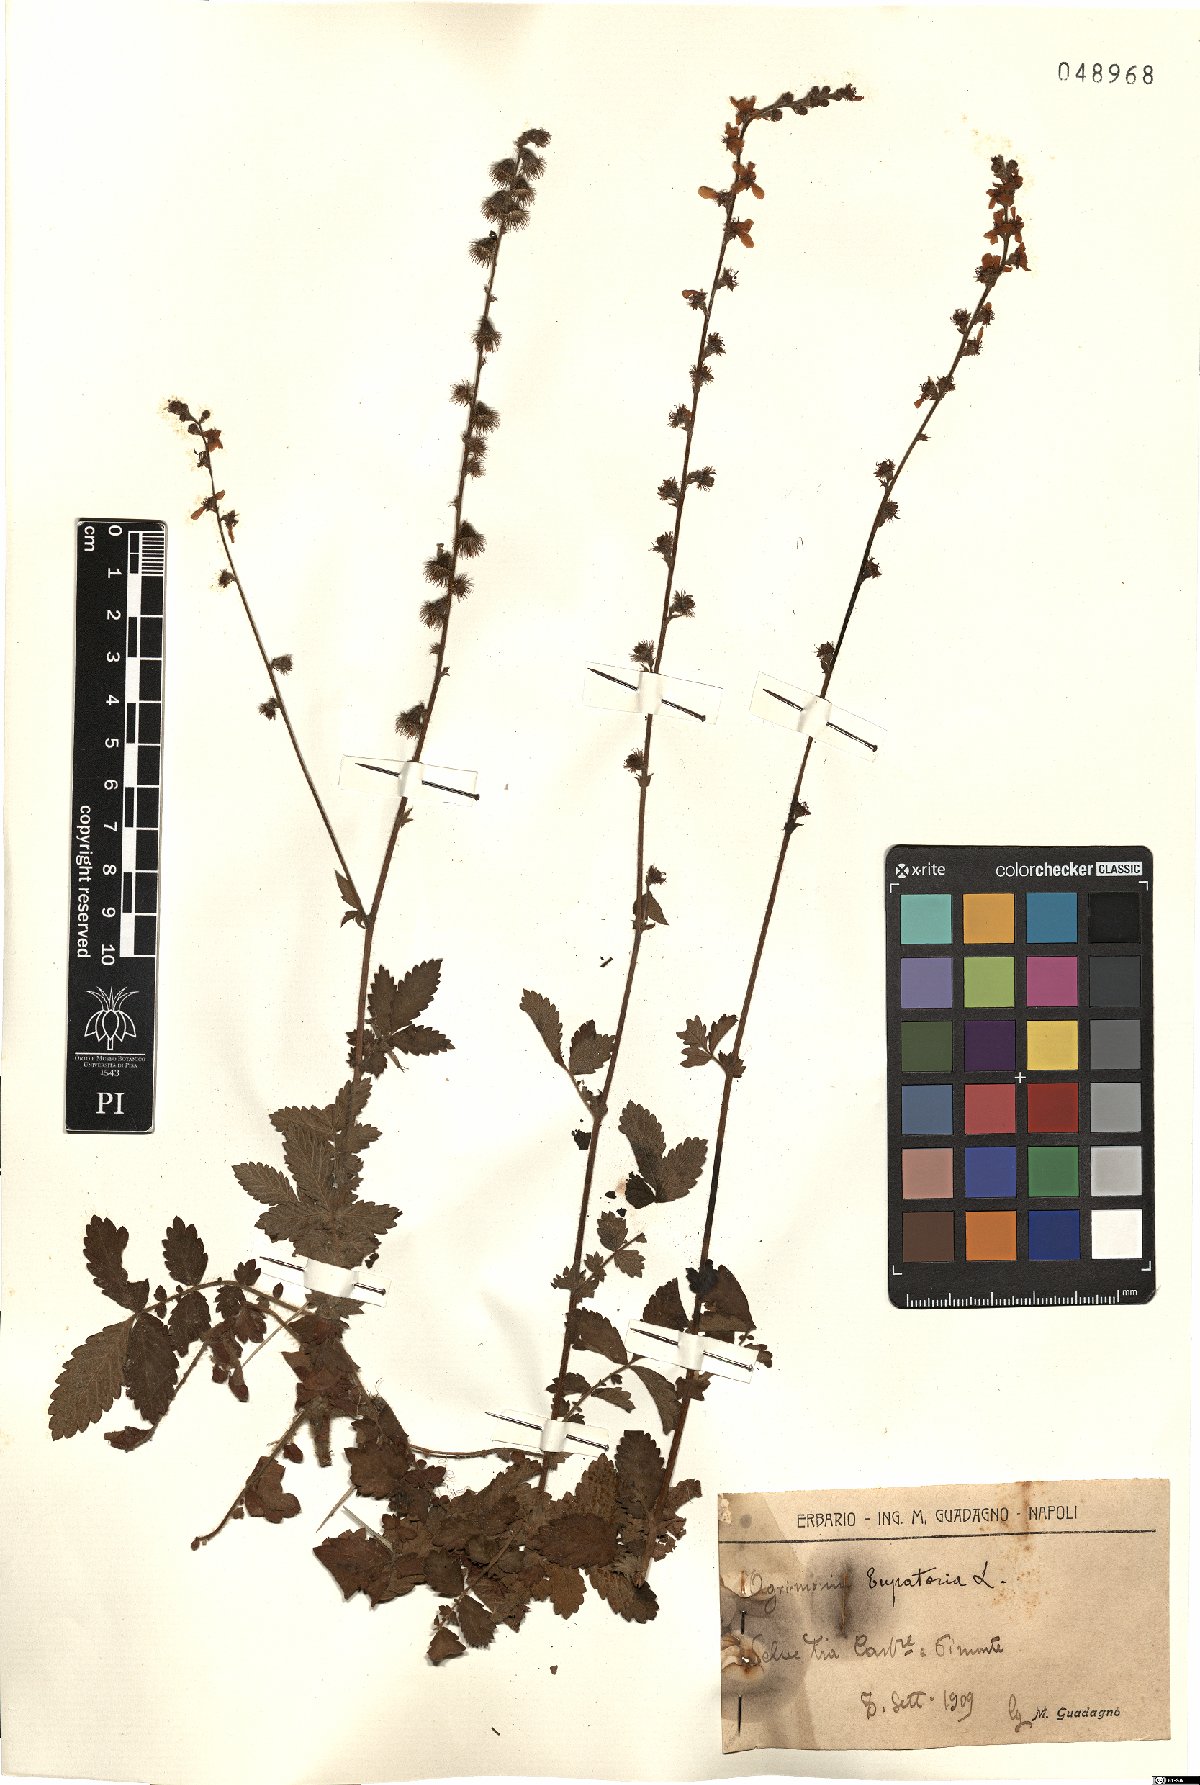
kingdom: Plantae
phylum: Tracheophyta
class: Magnoliopsida
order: Rosales
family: Rosaceae
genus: Agrimonia
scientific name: Agrimonia eupatoria
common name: Agrimony
